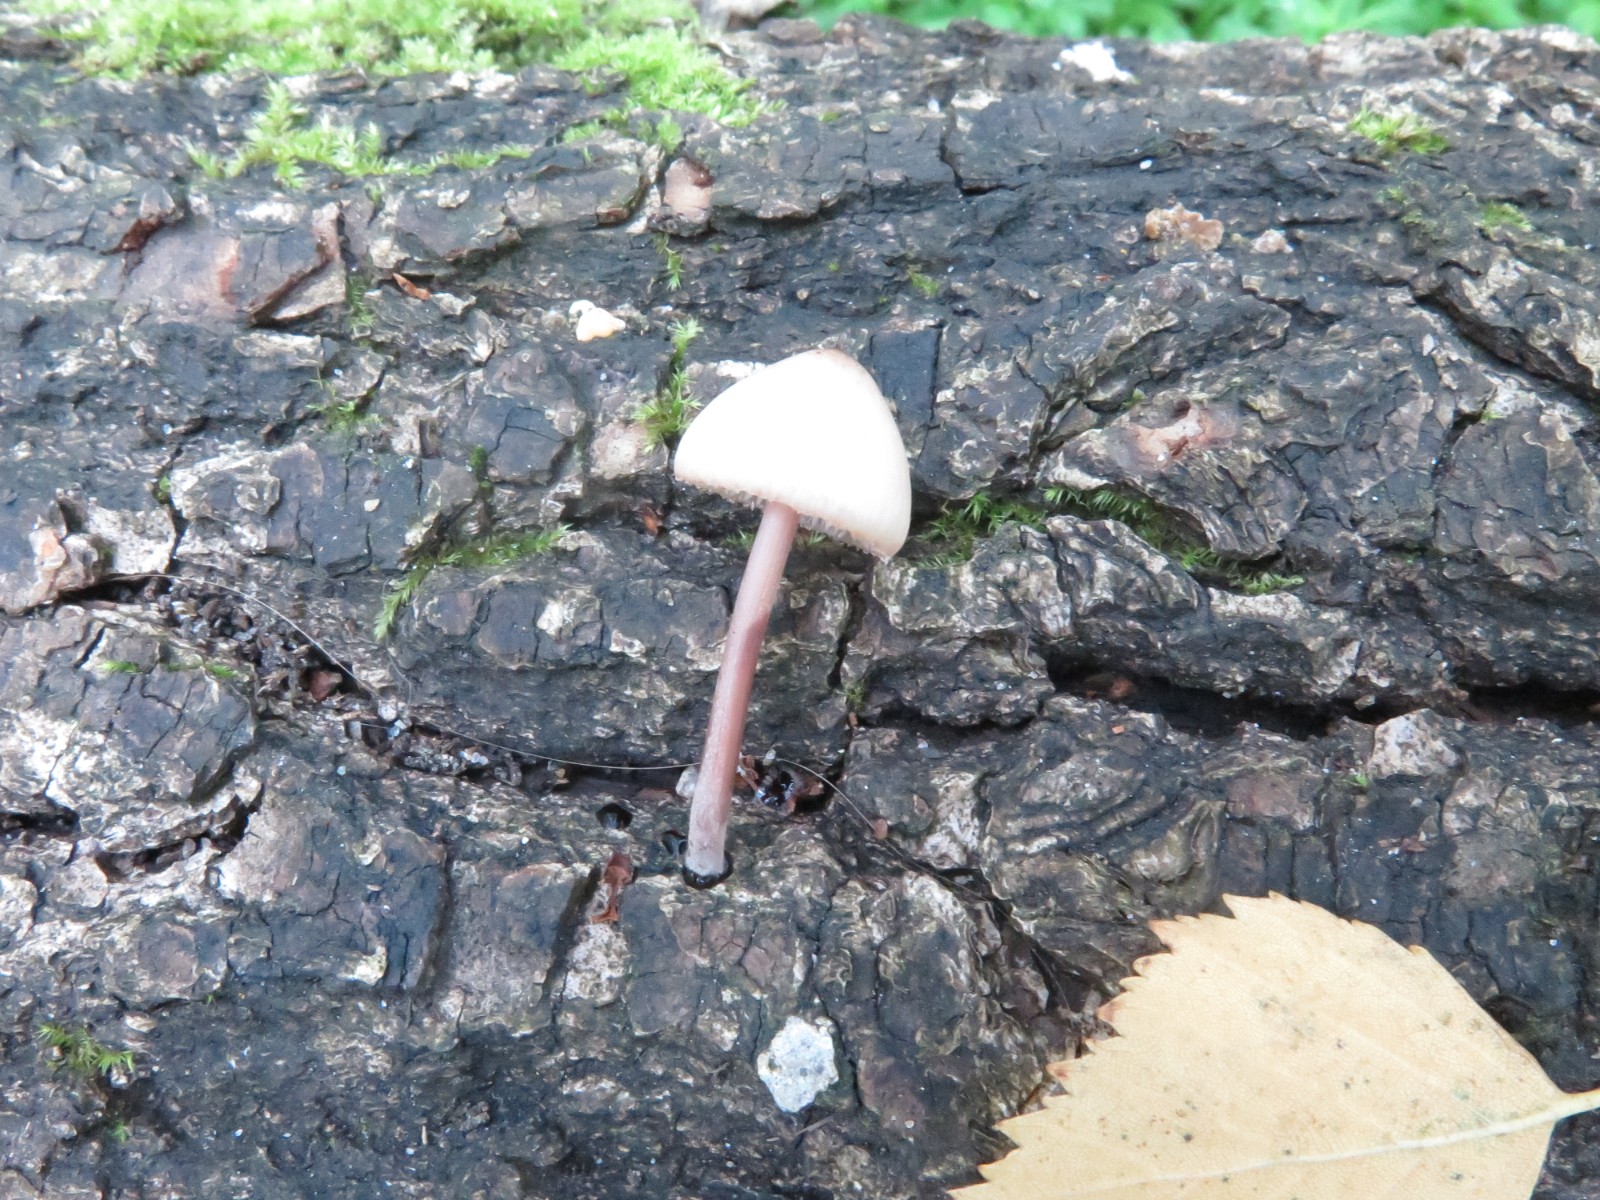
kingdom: Fungi
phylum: Basidiomycota
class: Agaricomycetes
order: Agaricales
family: Mycenaceae
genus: Mycena
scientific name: Mycena haematopus
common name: blødende huesvamp
